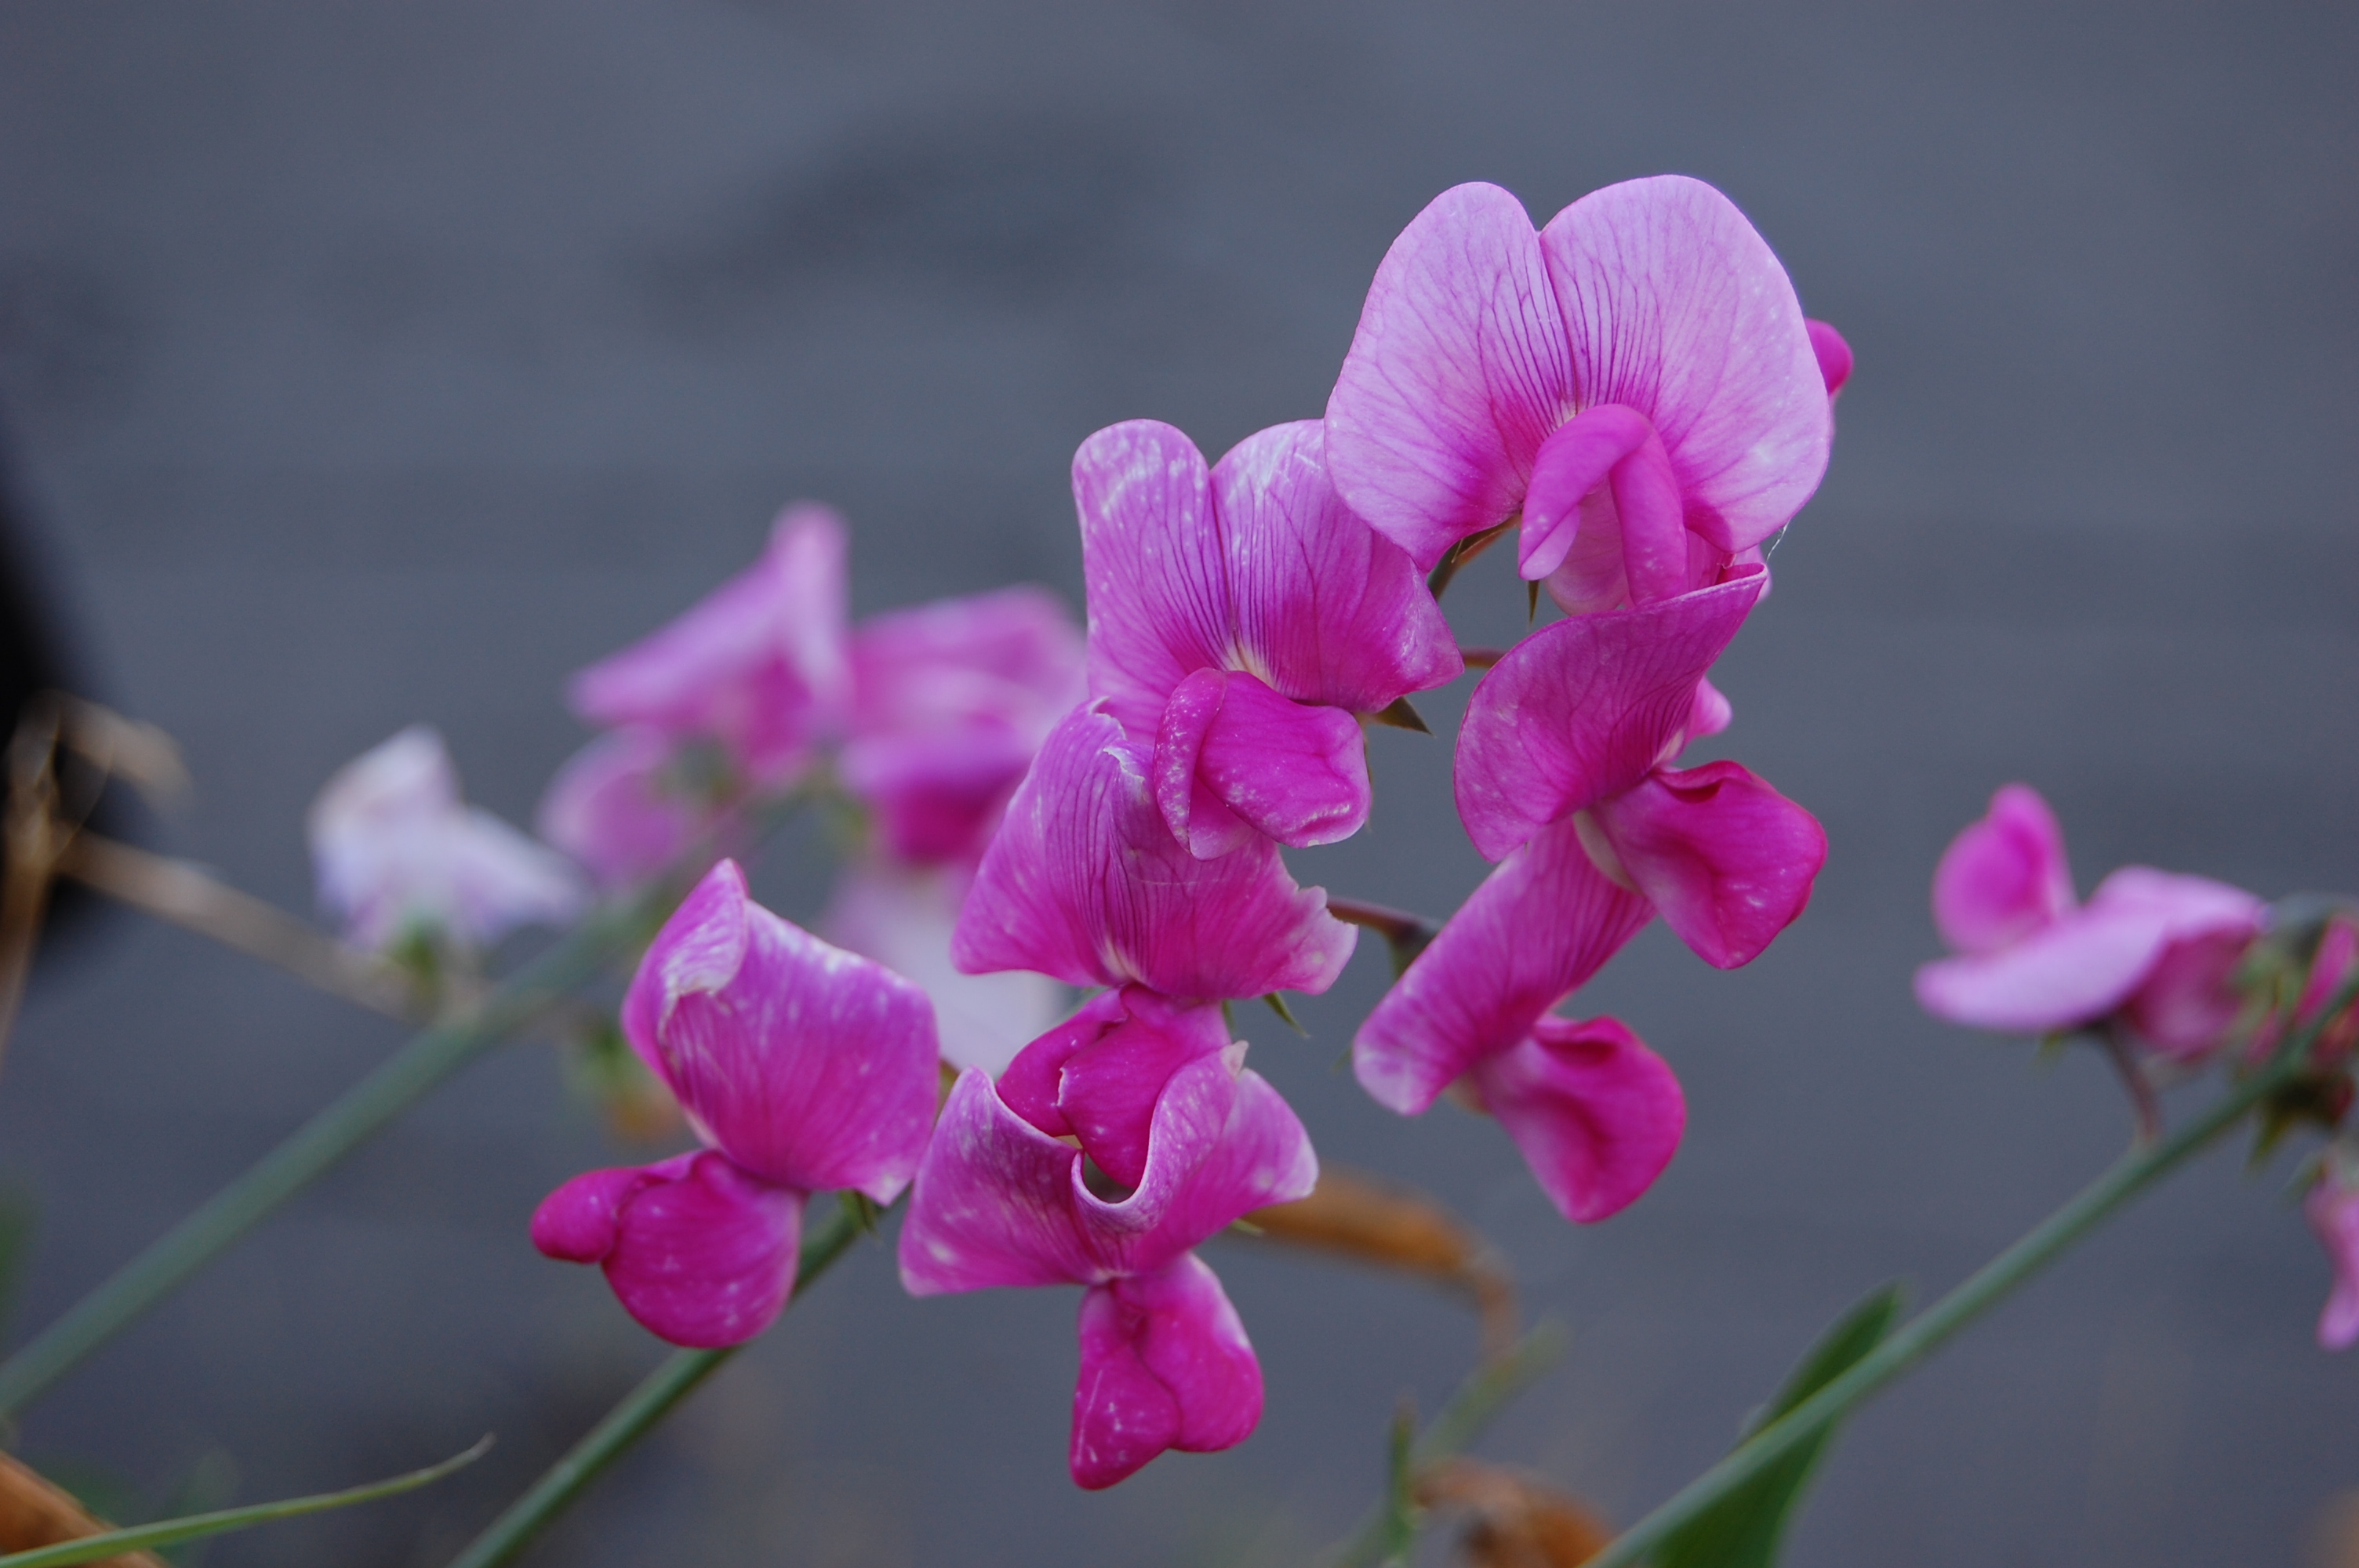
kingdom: Plantae
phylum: Tracheophyta
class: Magnoliopsida
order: Fabales
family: Fabaceae
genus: Lathyrus
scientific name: Lathyrus latifolius
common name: Perennial pea
